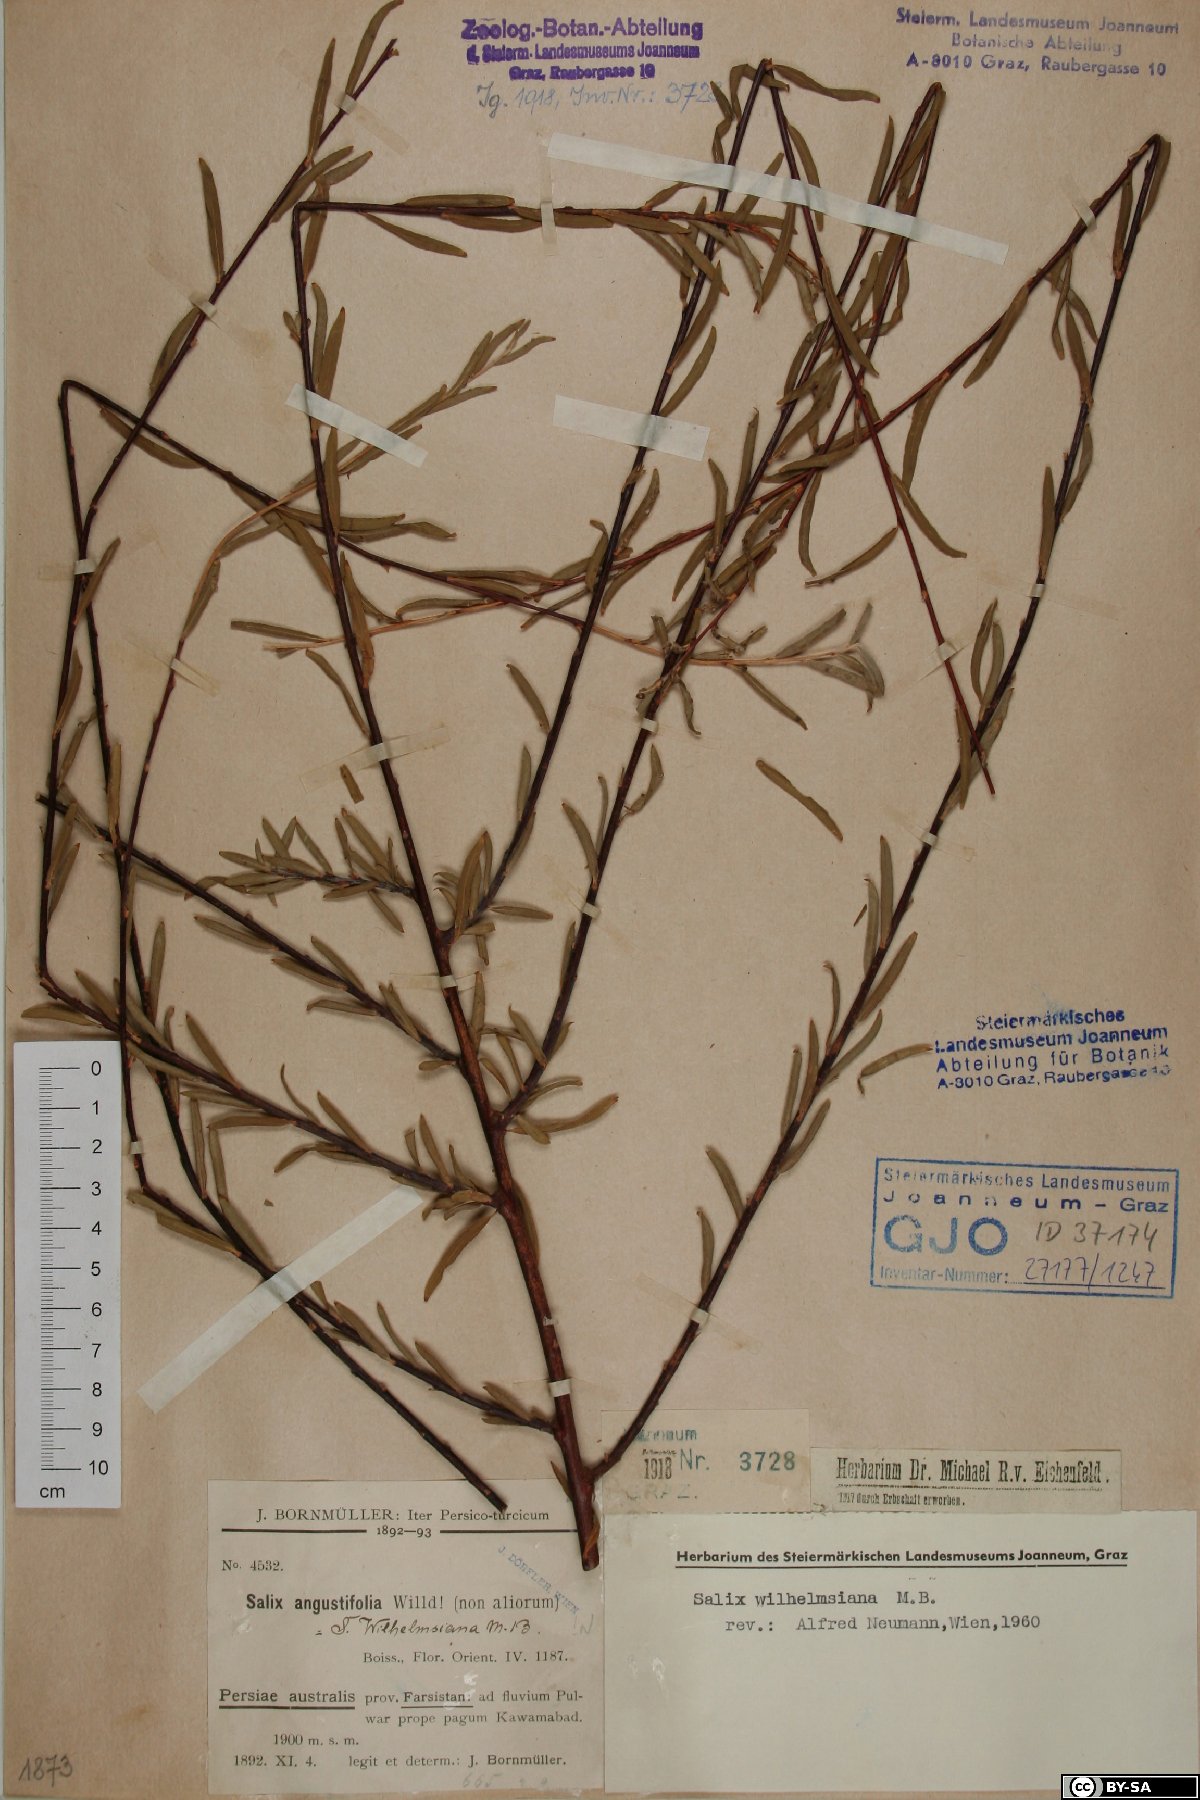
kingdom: Plantae
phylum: Tracheophyta
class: Magnoliopsida
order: Malpighiales
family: Salicaceae
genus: Salix
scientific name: Salix wilhelmsiana
